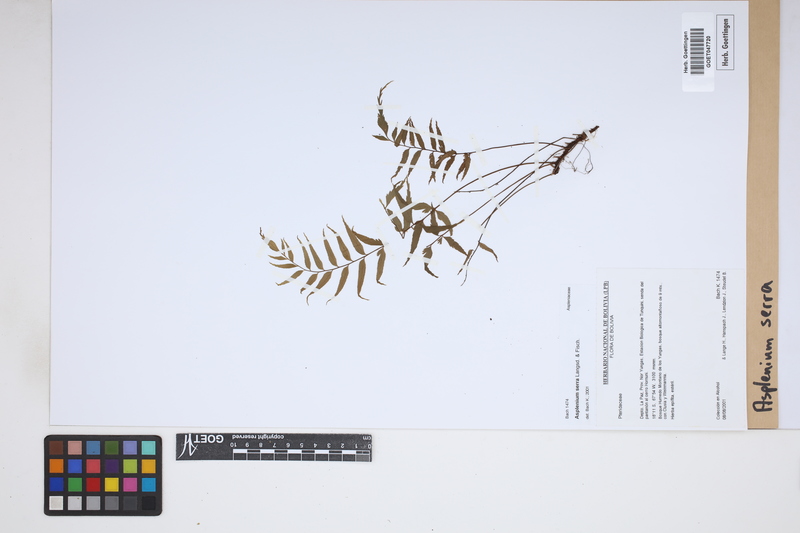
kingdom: Plantae
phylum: Tracheophyta
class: Polypodiopsida
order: Polypodiales
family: Aspleniaceae
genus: Asplenium
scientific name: Asplenium serra
